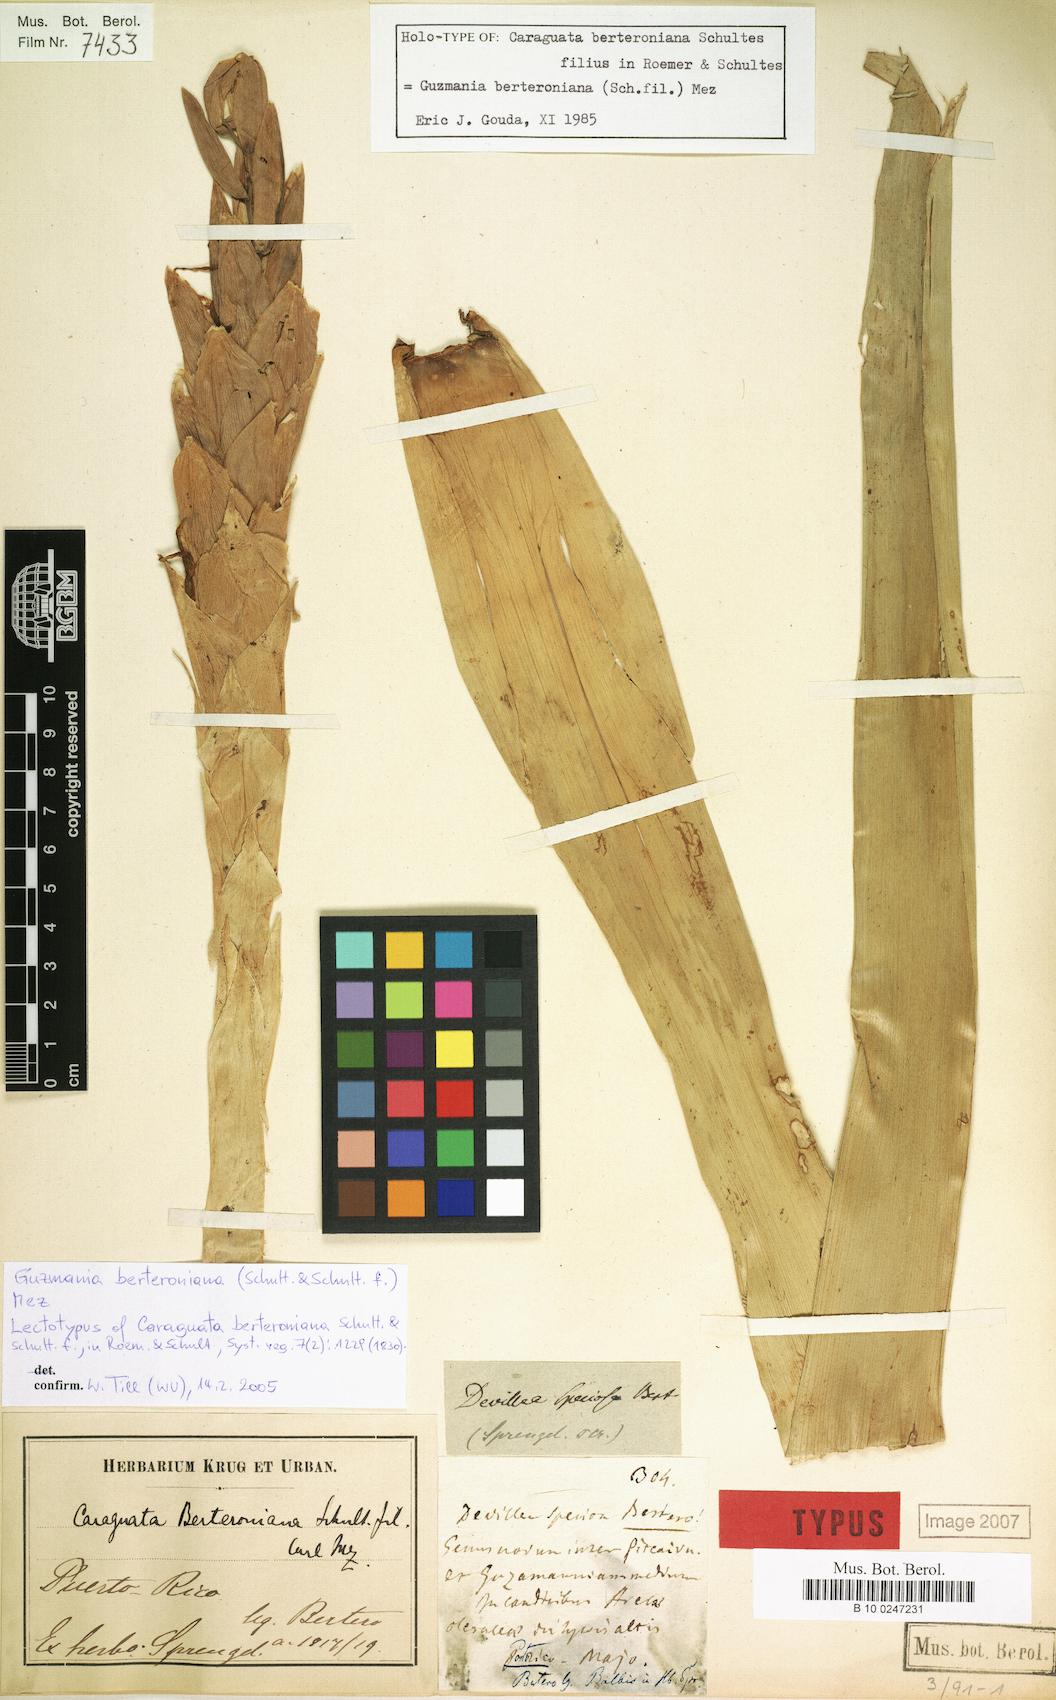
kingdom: Plantae
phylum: Tracheophyta
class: Liliopsida
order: Poales
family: Bromeliaceae
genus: Guzmania
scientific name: Guzmania berteroniana
